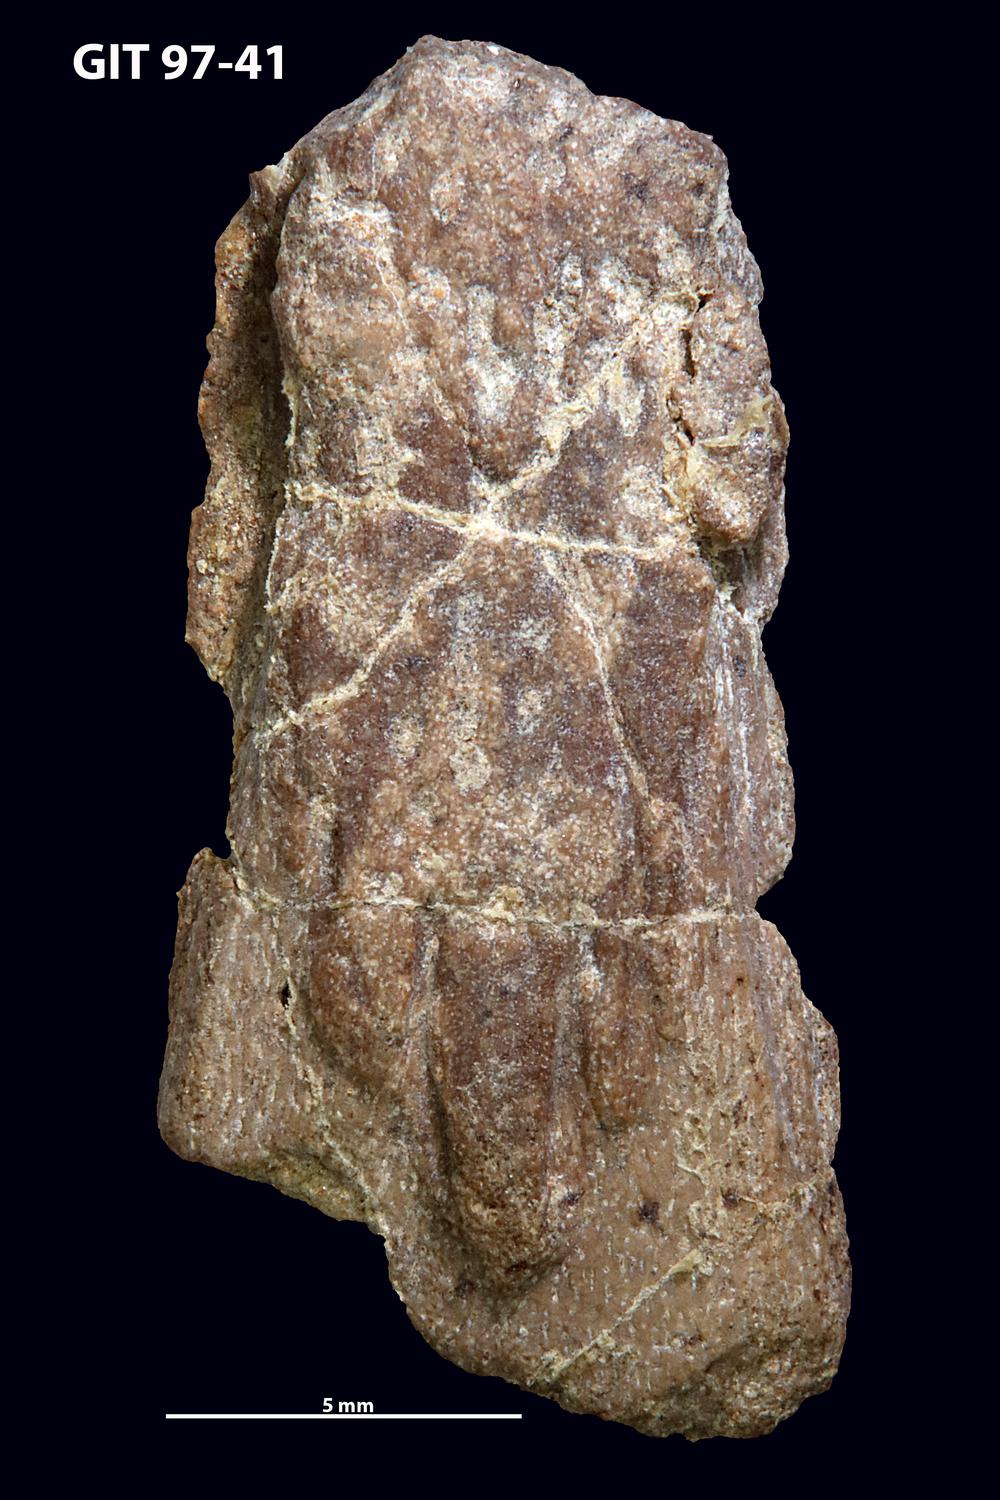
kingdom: Animalia
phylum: Chordata
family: Holonematidae
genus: Holonema
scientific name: Holonema
